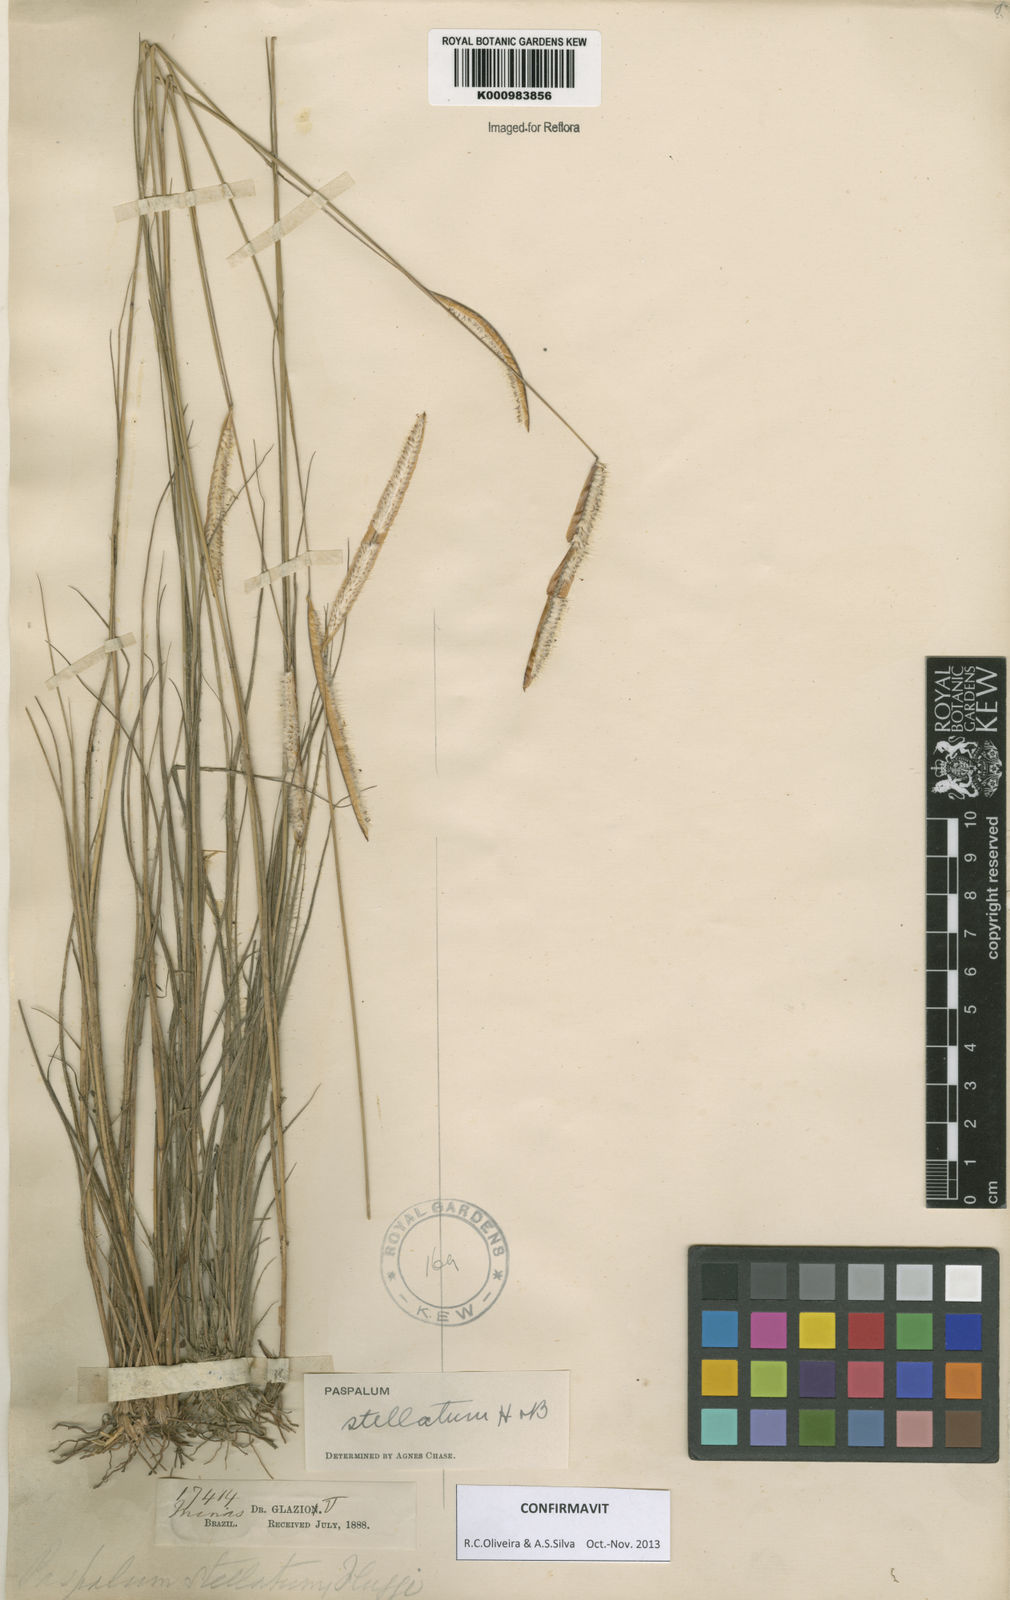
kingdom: Plantae
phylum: Tracheophyta
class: Liliopsida
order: Poales
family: Poaceae
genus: Paspalum
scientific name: Paspalum
